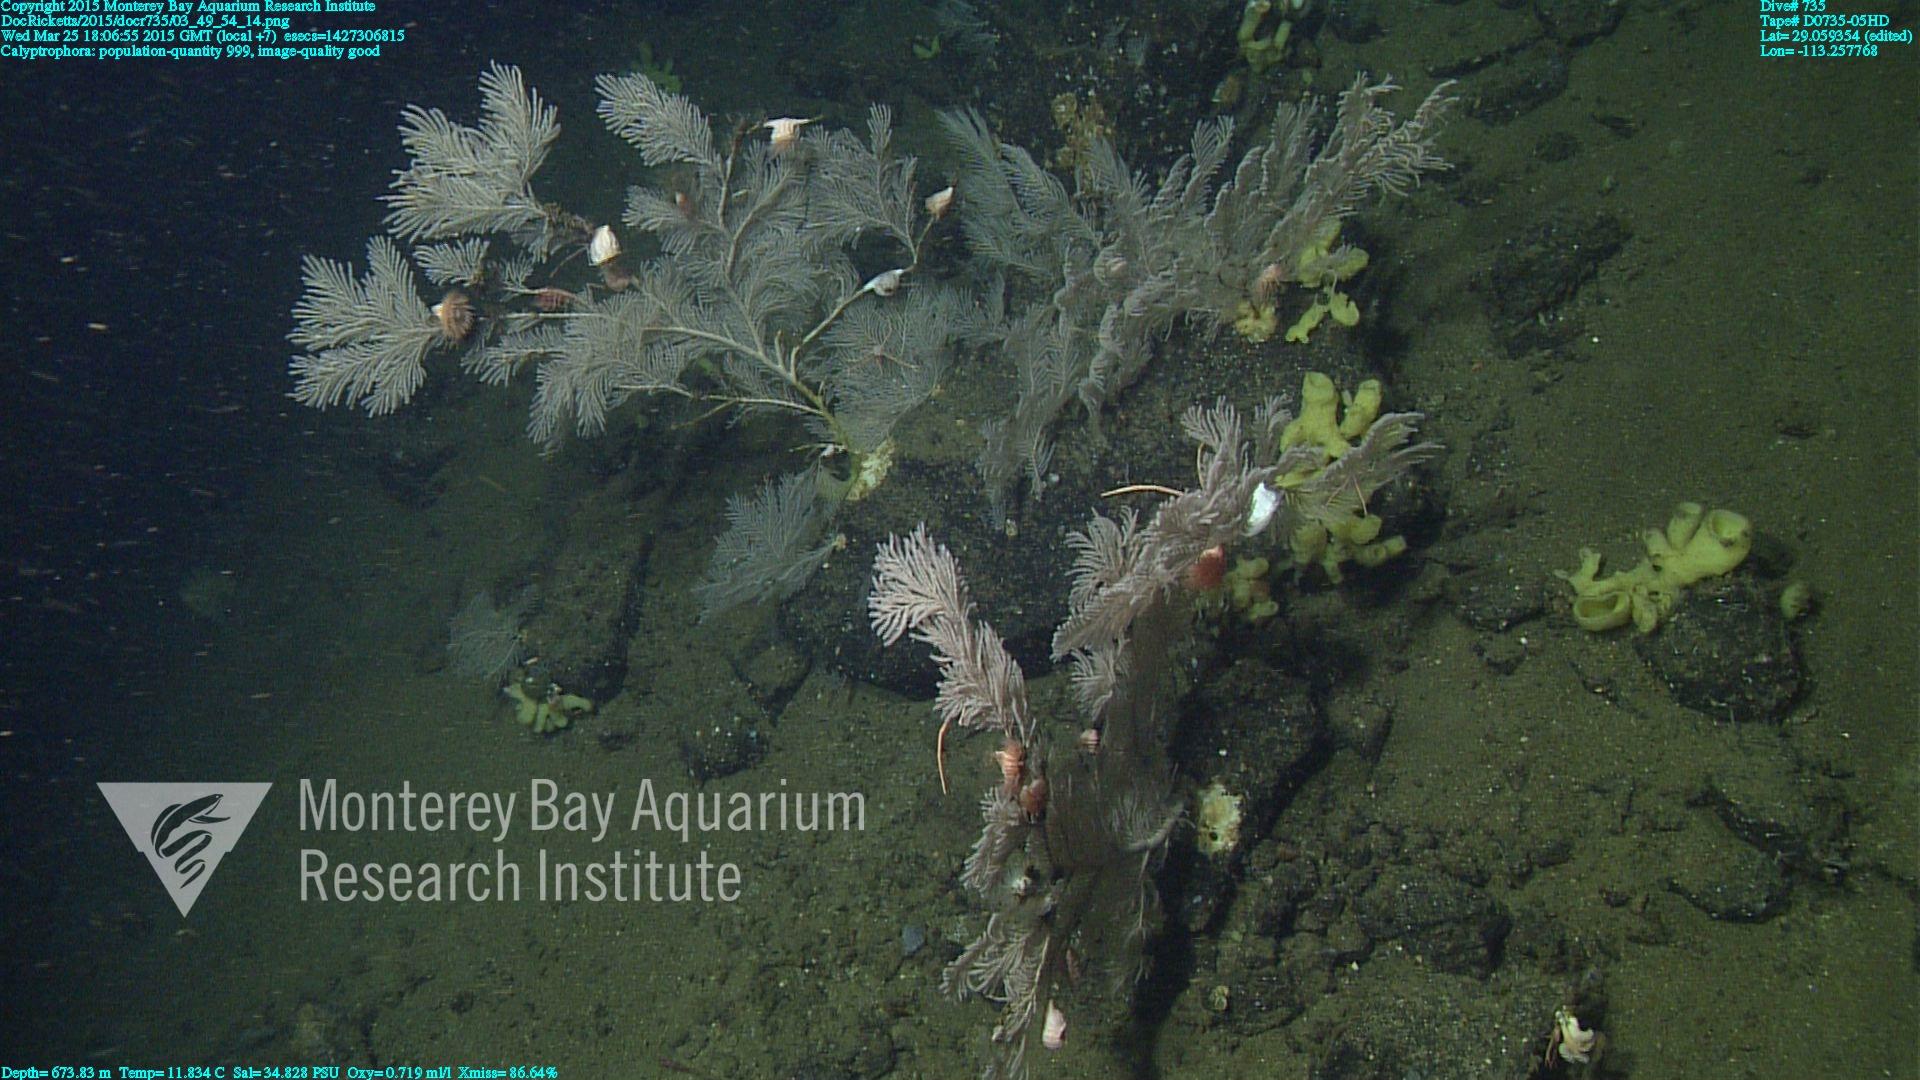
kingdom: Animalia
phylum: Cnidaria
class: Anthozoa
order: Scleralcyonacea
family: Primnoidae
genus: Calyptrophora
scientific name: Calyptrophora
